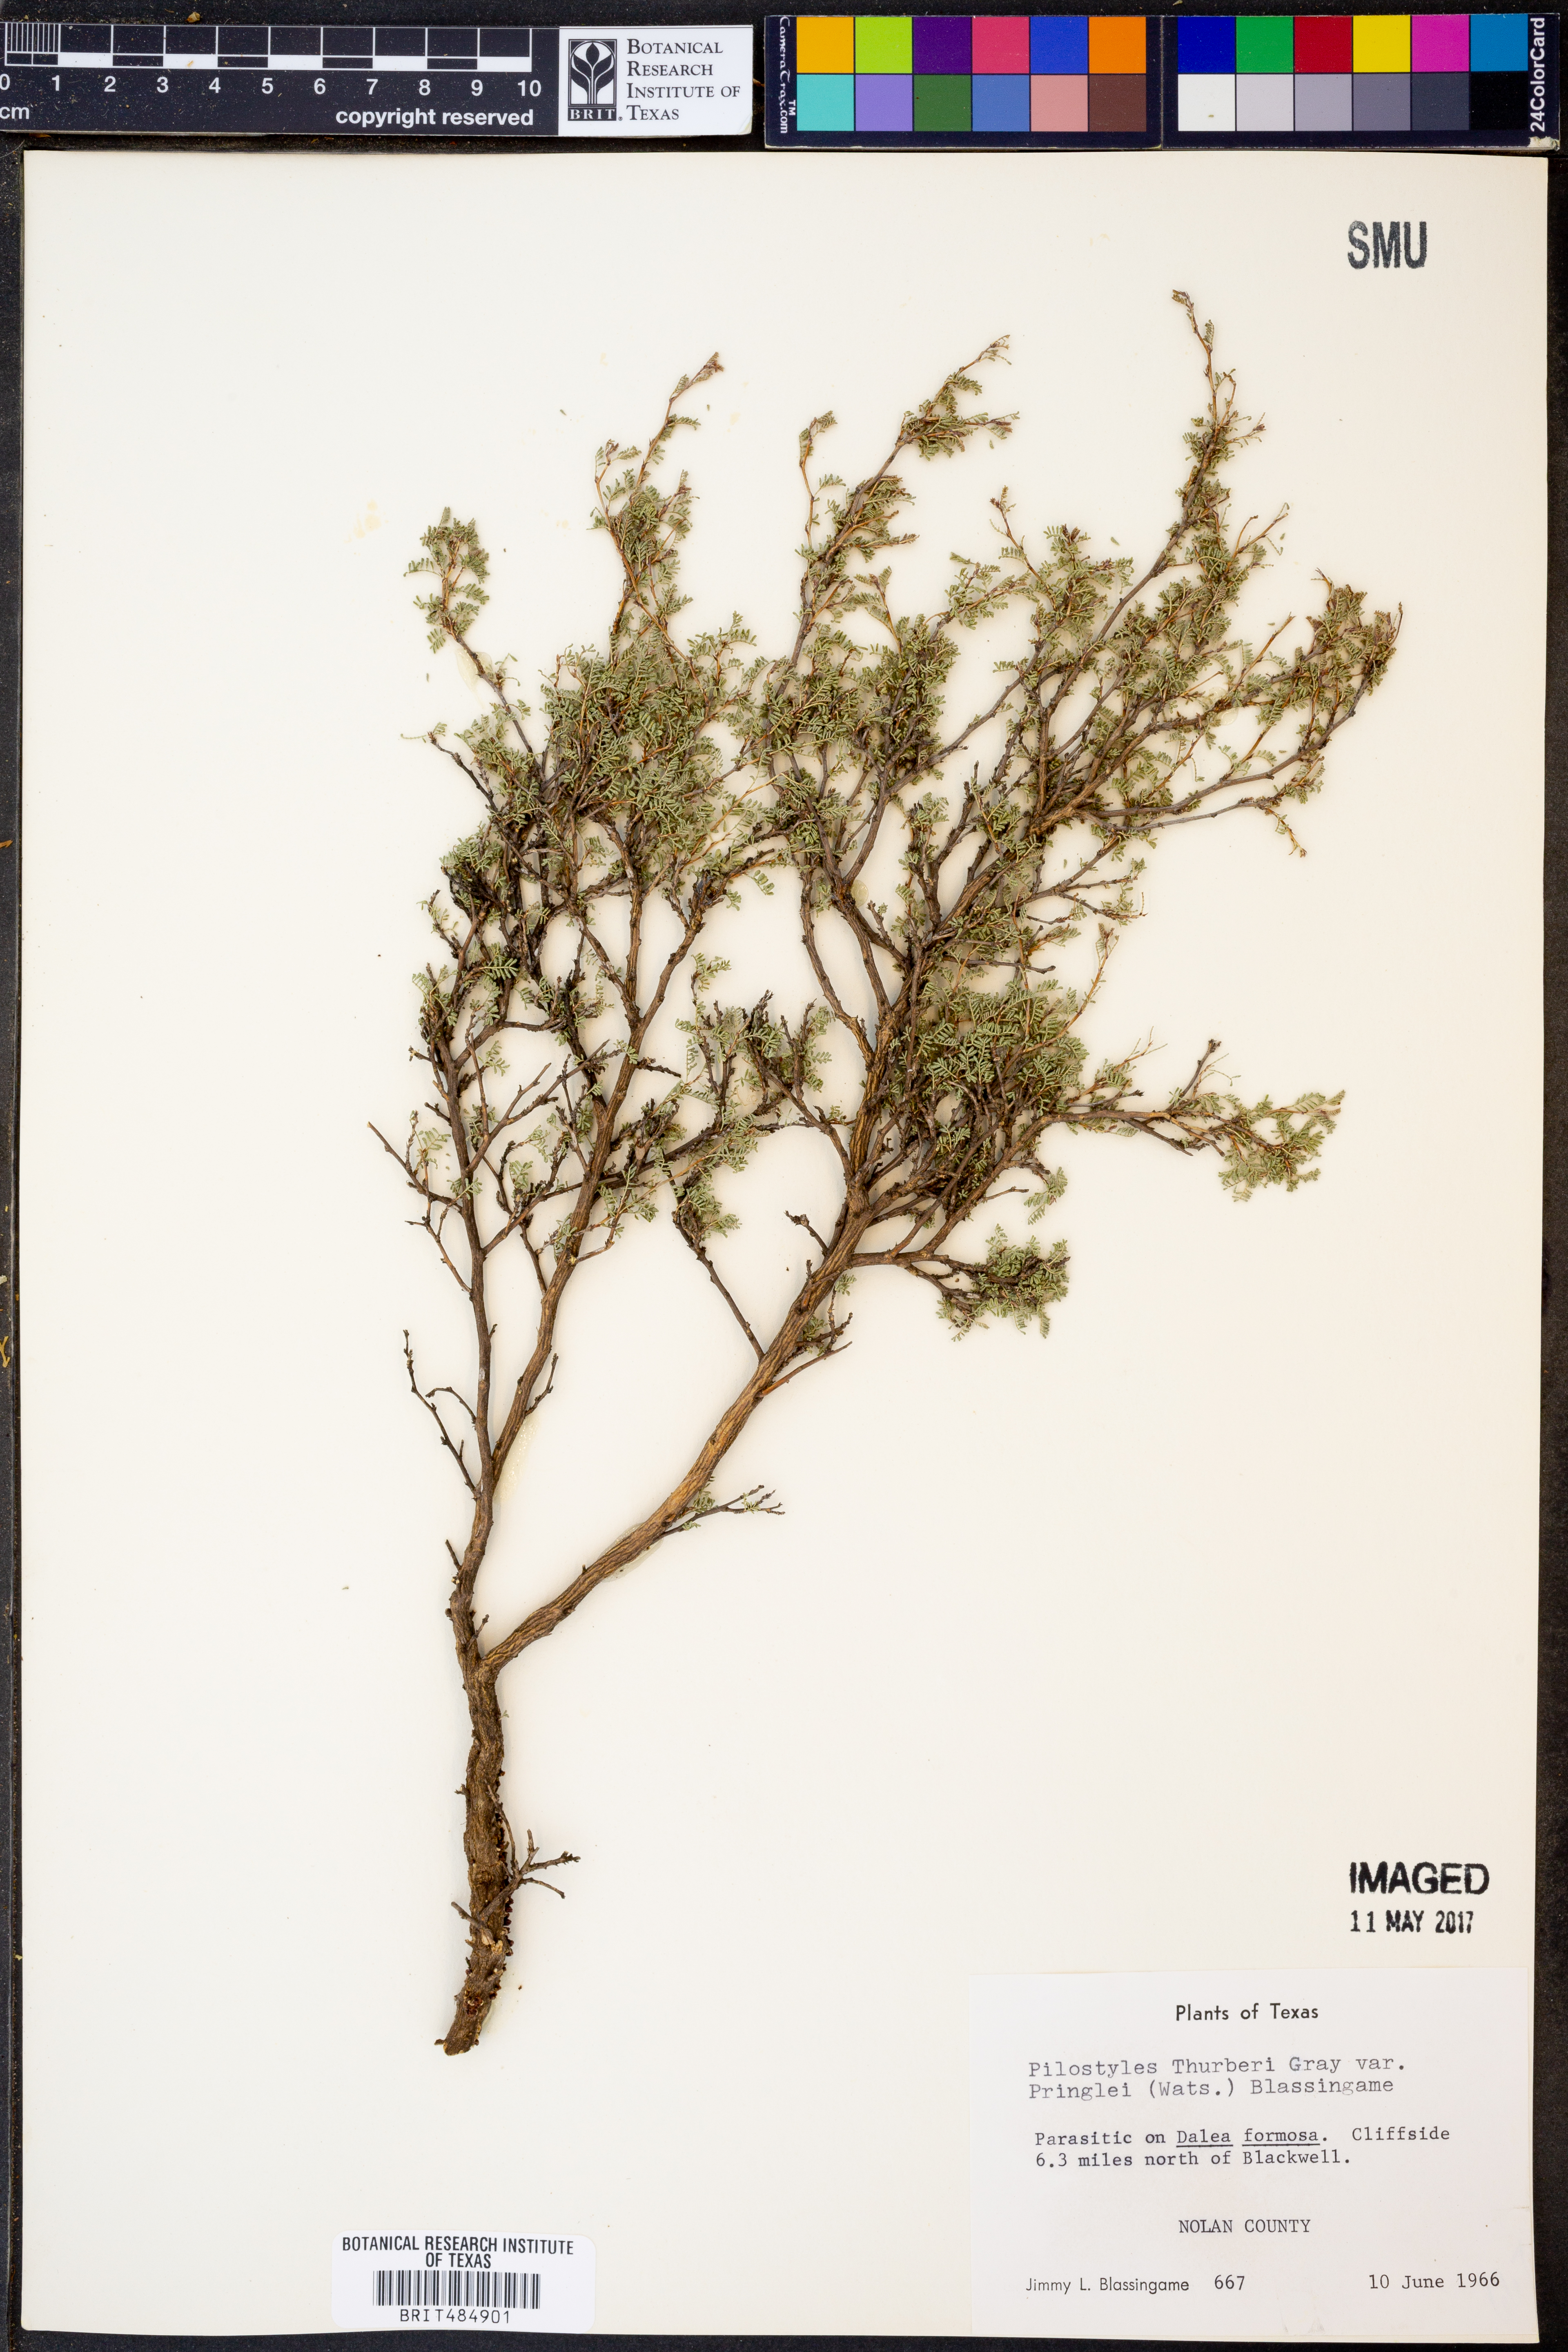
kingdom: Plantae
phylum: Tracheophyta
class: Magnoliopsida
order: Cucurbitales
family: Apodanthaceae
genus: Pilostyles
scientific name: Pilostyles thurberi
